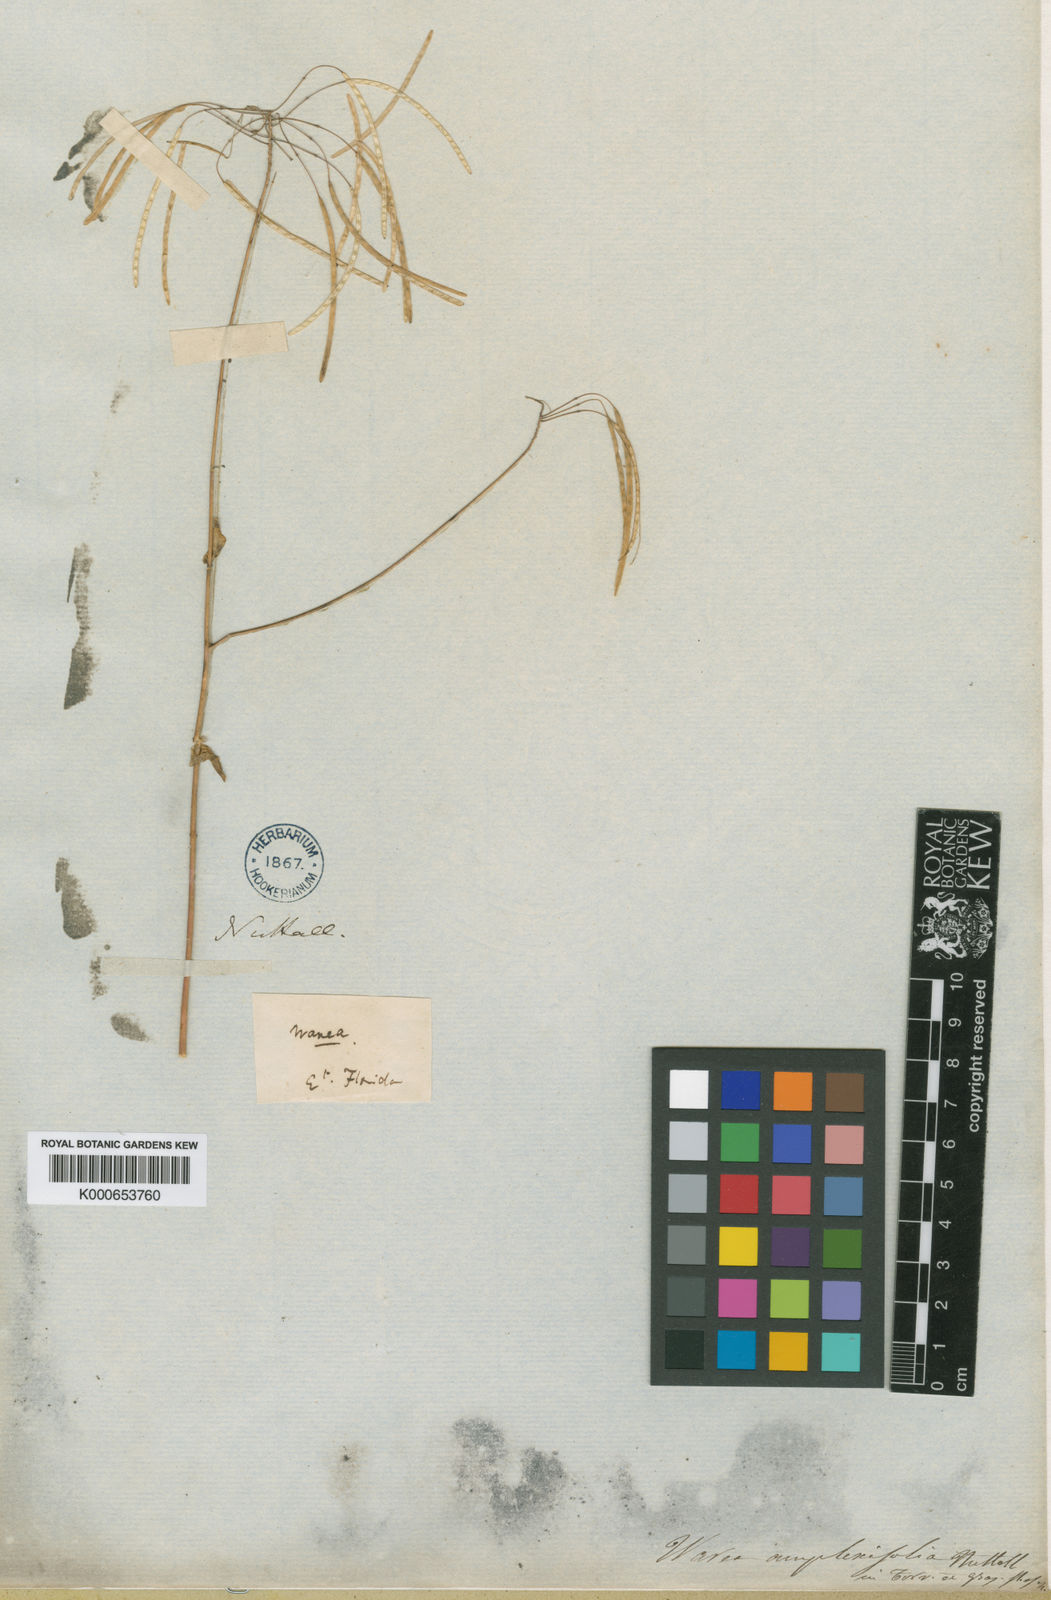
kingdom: Plantae
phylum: Tracheophyta
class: Magnoliopsida
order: Brassicales
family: Brassicaceae
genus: Warea
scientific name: Warea amplexifolia
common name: Wide-leaf warea
